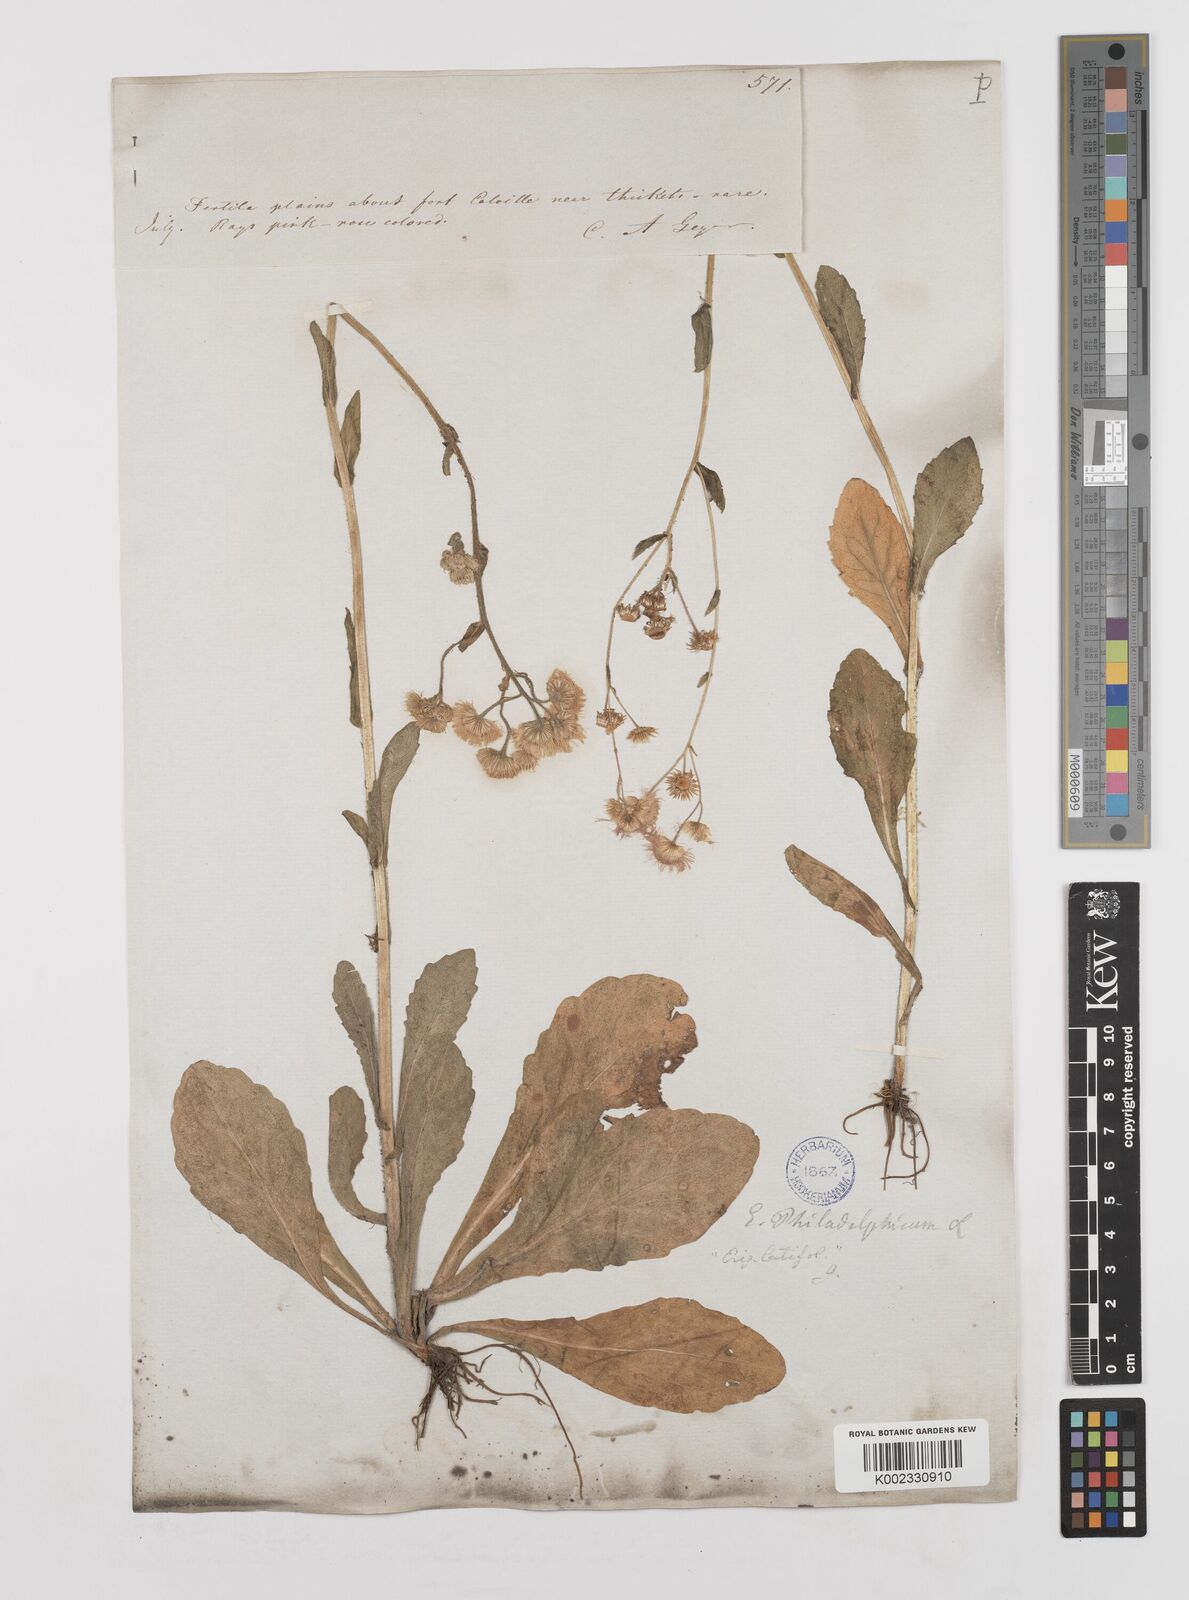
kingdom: Plantae
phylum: Tracheophyta
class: Magnoliopsida
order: Asterales
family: Asteraceae
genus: Erigeron
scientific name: Erigeron philadelphicus
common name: Robin's-plantain
